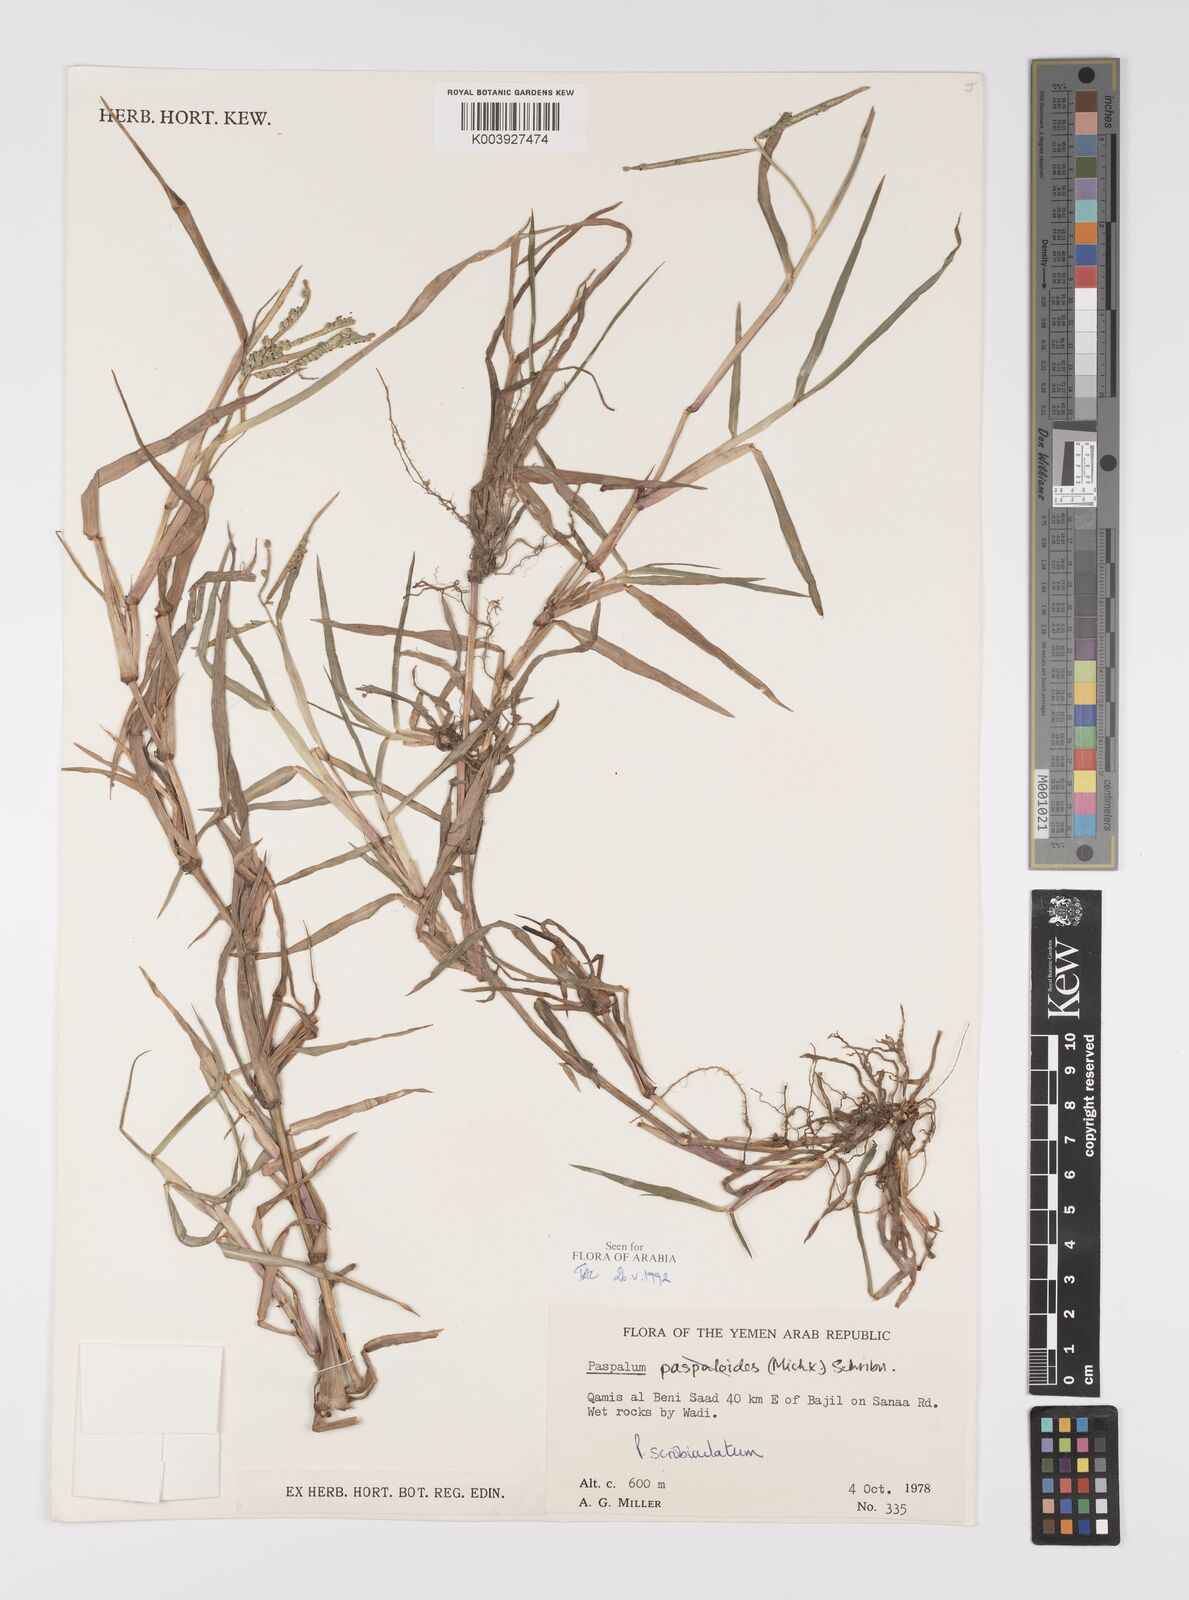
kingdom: Plantae
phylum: Tracheophyta
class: Liliopsida
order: Poales
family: Poaceae
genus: Paspalum
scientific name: Paspalum scrobiculatum
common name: Kodo millet
